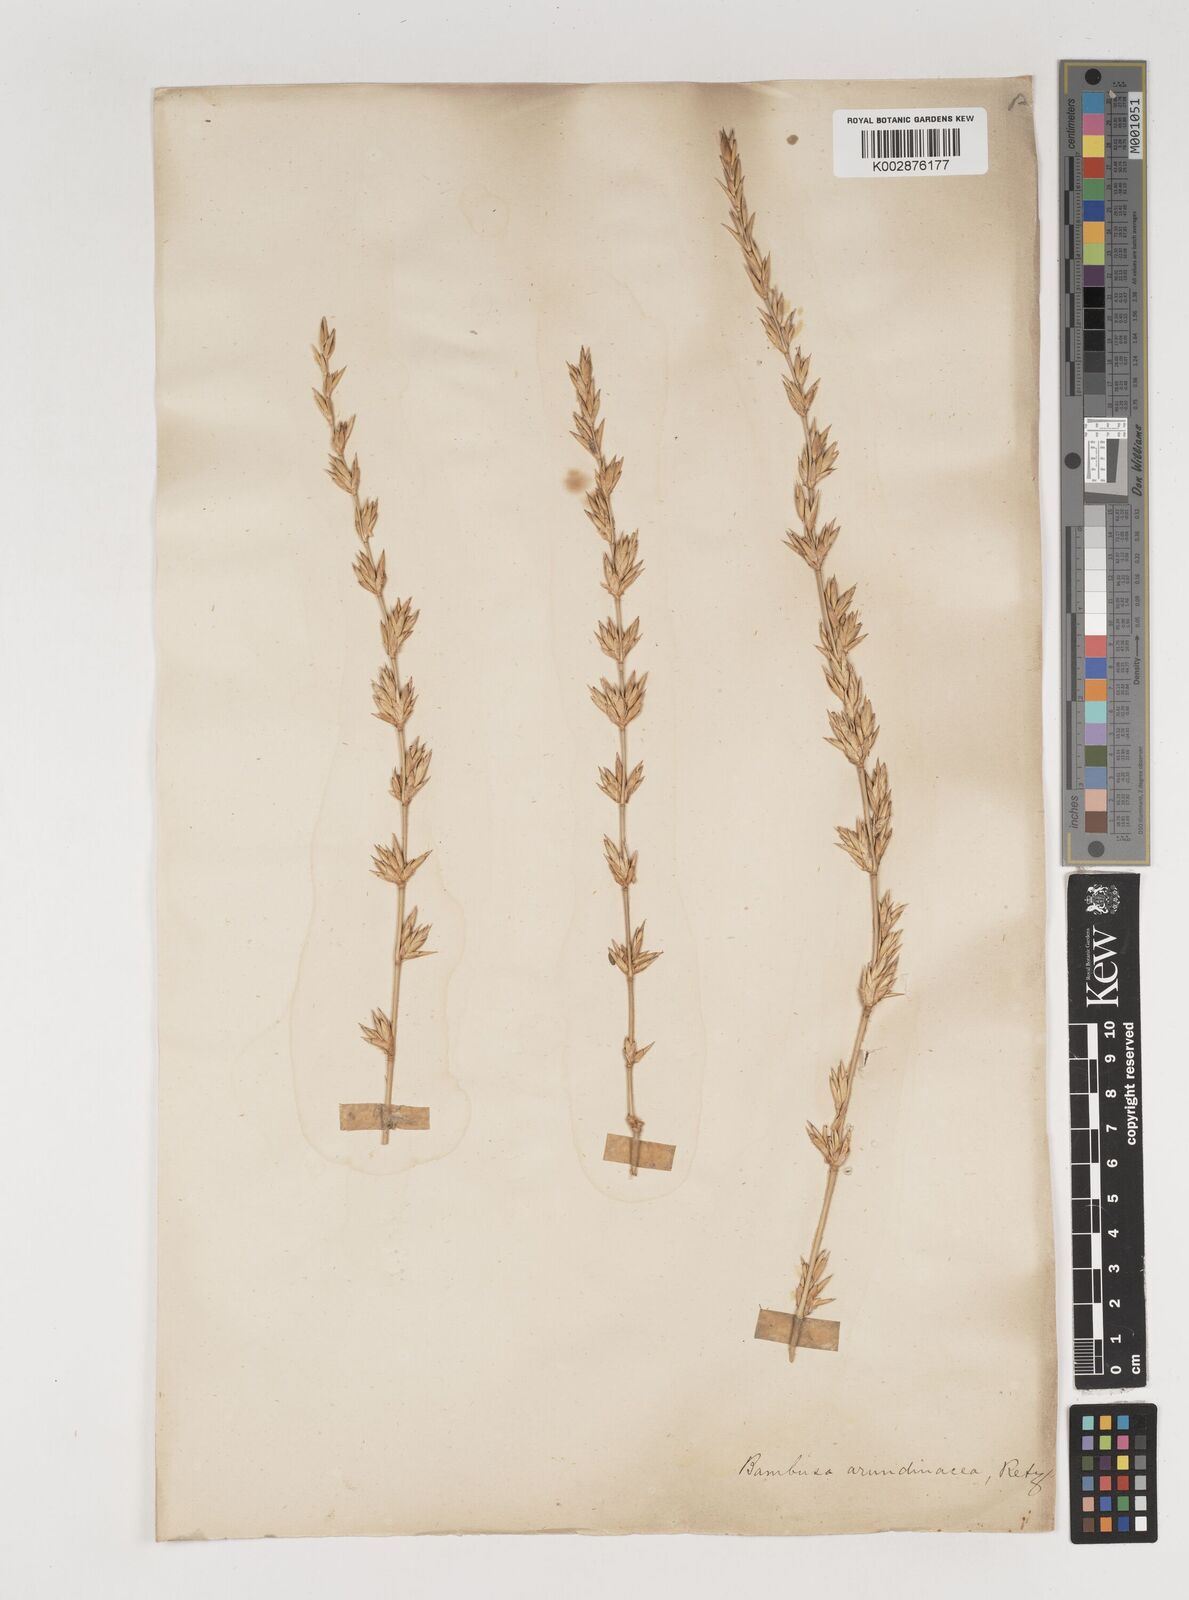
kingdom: Plantae
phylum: Tracheophyta
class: Liliopsida
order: Poales
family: Poaceae
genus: Bambusa
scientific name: Bambusa bambos
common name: Indian thorny bamboo
